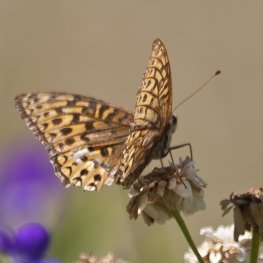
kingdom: Animalia
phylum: Arthropoda
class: Insecta
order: Lepidoptera
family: Nymphalidae
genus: Speyeria
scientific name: Speyeria atlantis
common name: Atlantis Fritillary
